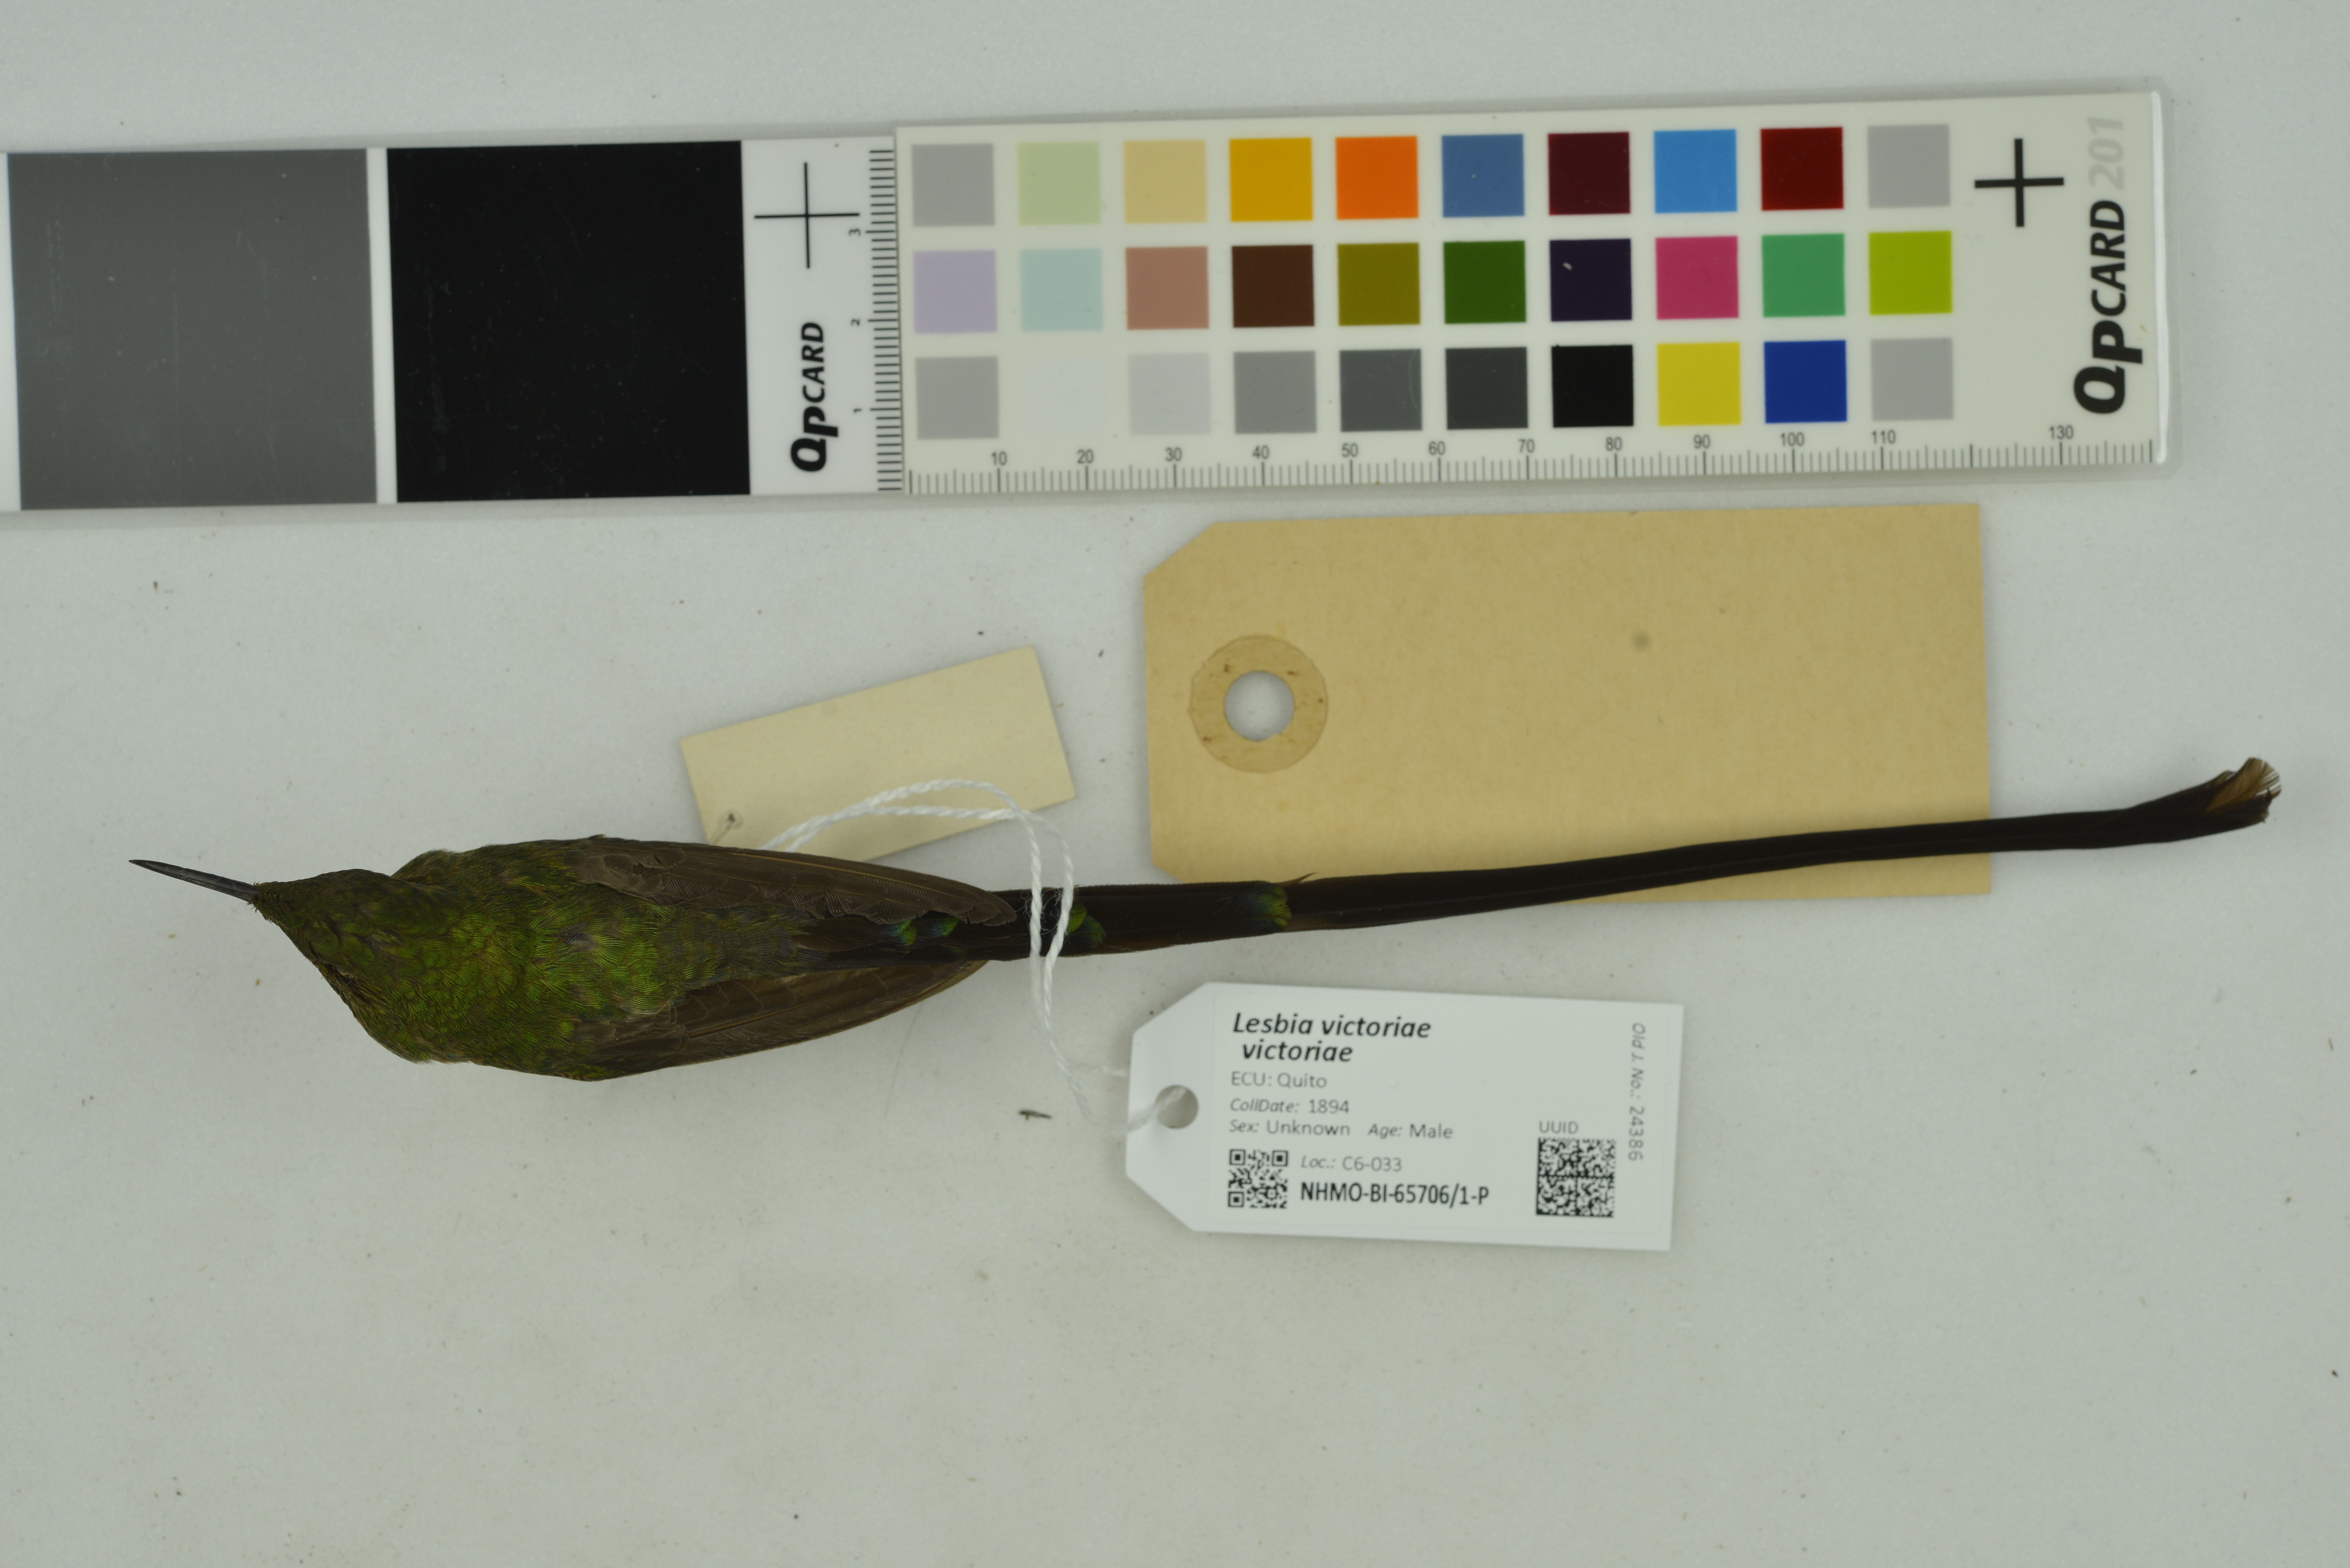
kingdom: Animalia
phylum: Chordata
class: Aves
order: Apodiformes
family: Trochilidae
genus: Lesbia
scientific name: Lesbia victoriae
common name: Black-tailed trainbearer
